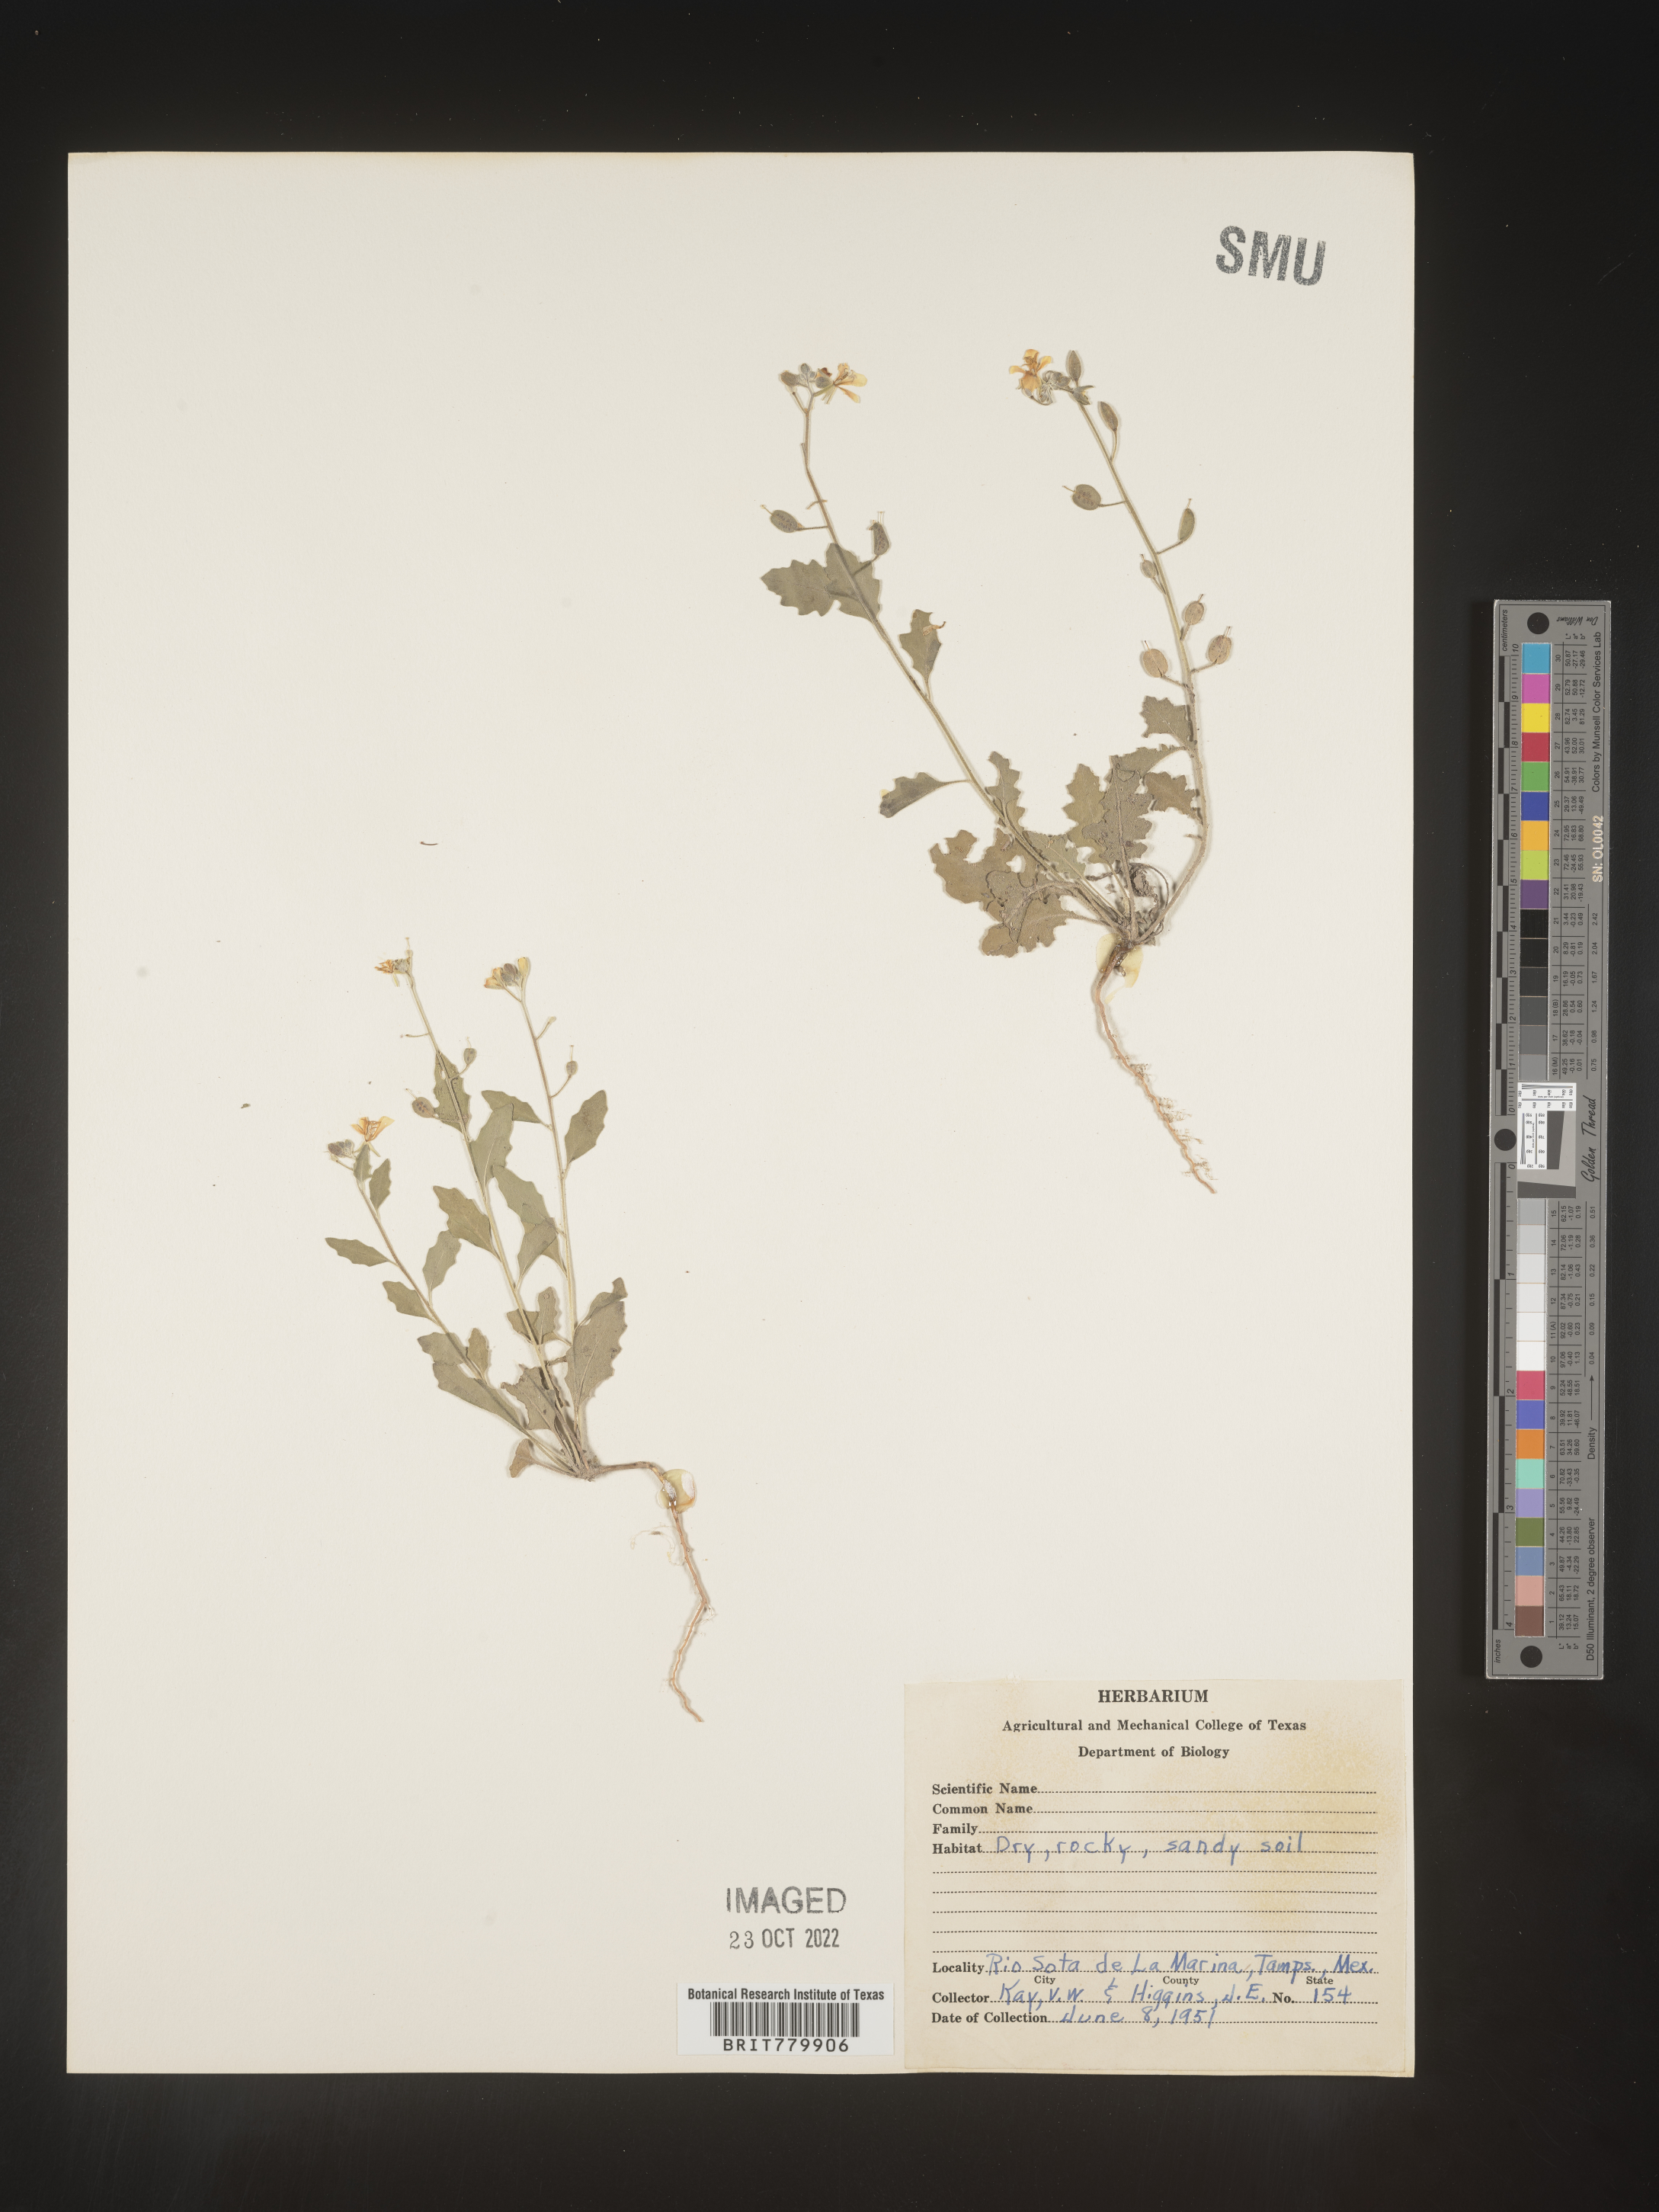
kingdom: Plantae
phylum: Tracheophyta
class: Magnoliopsida
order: Brassicales
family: Brassicaceae
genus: Thlaspi
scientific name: Thlaspi
